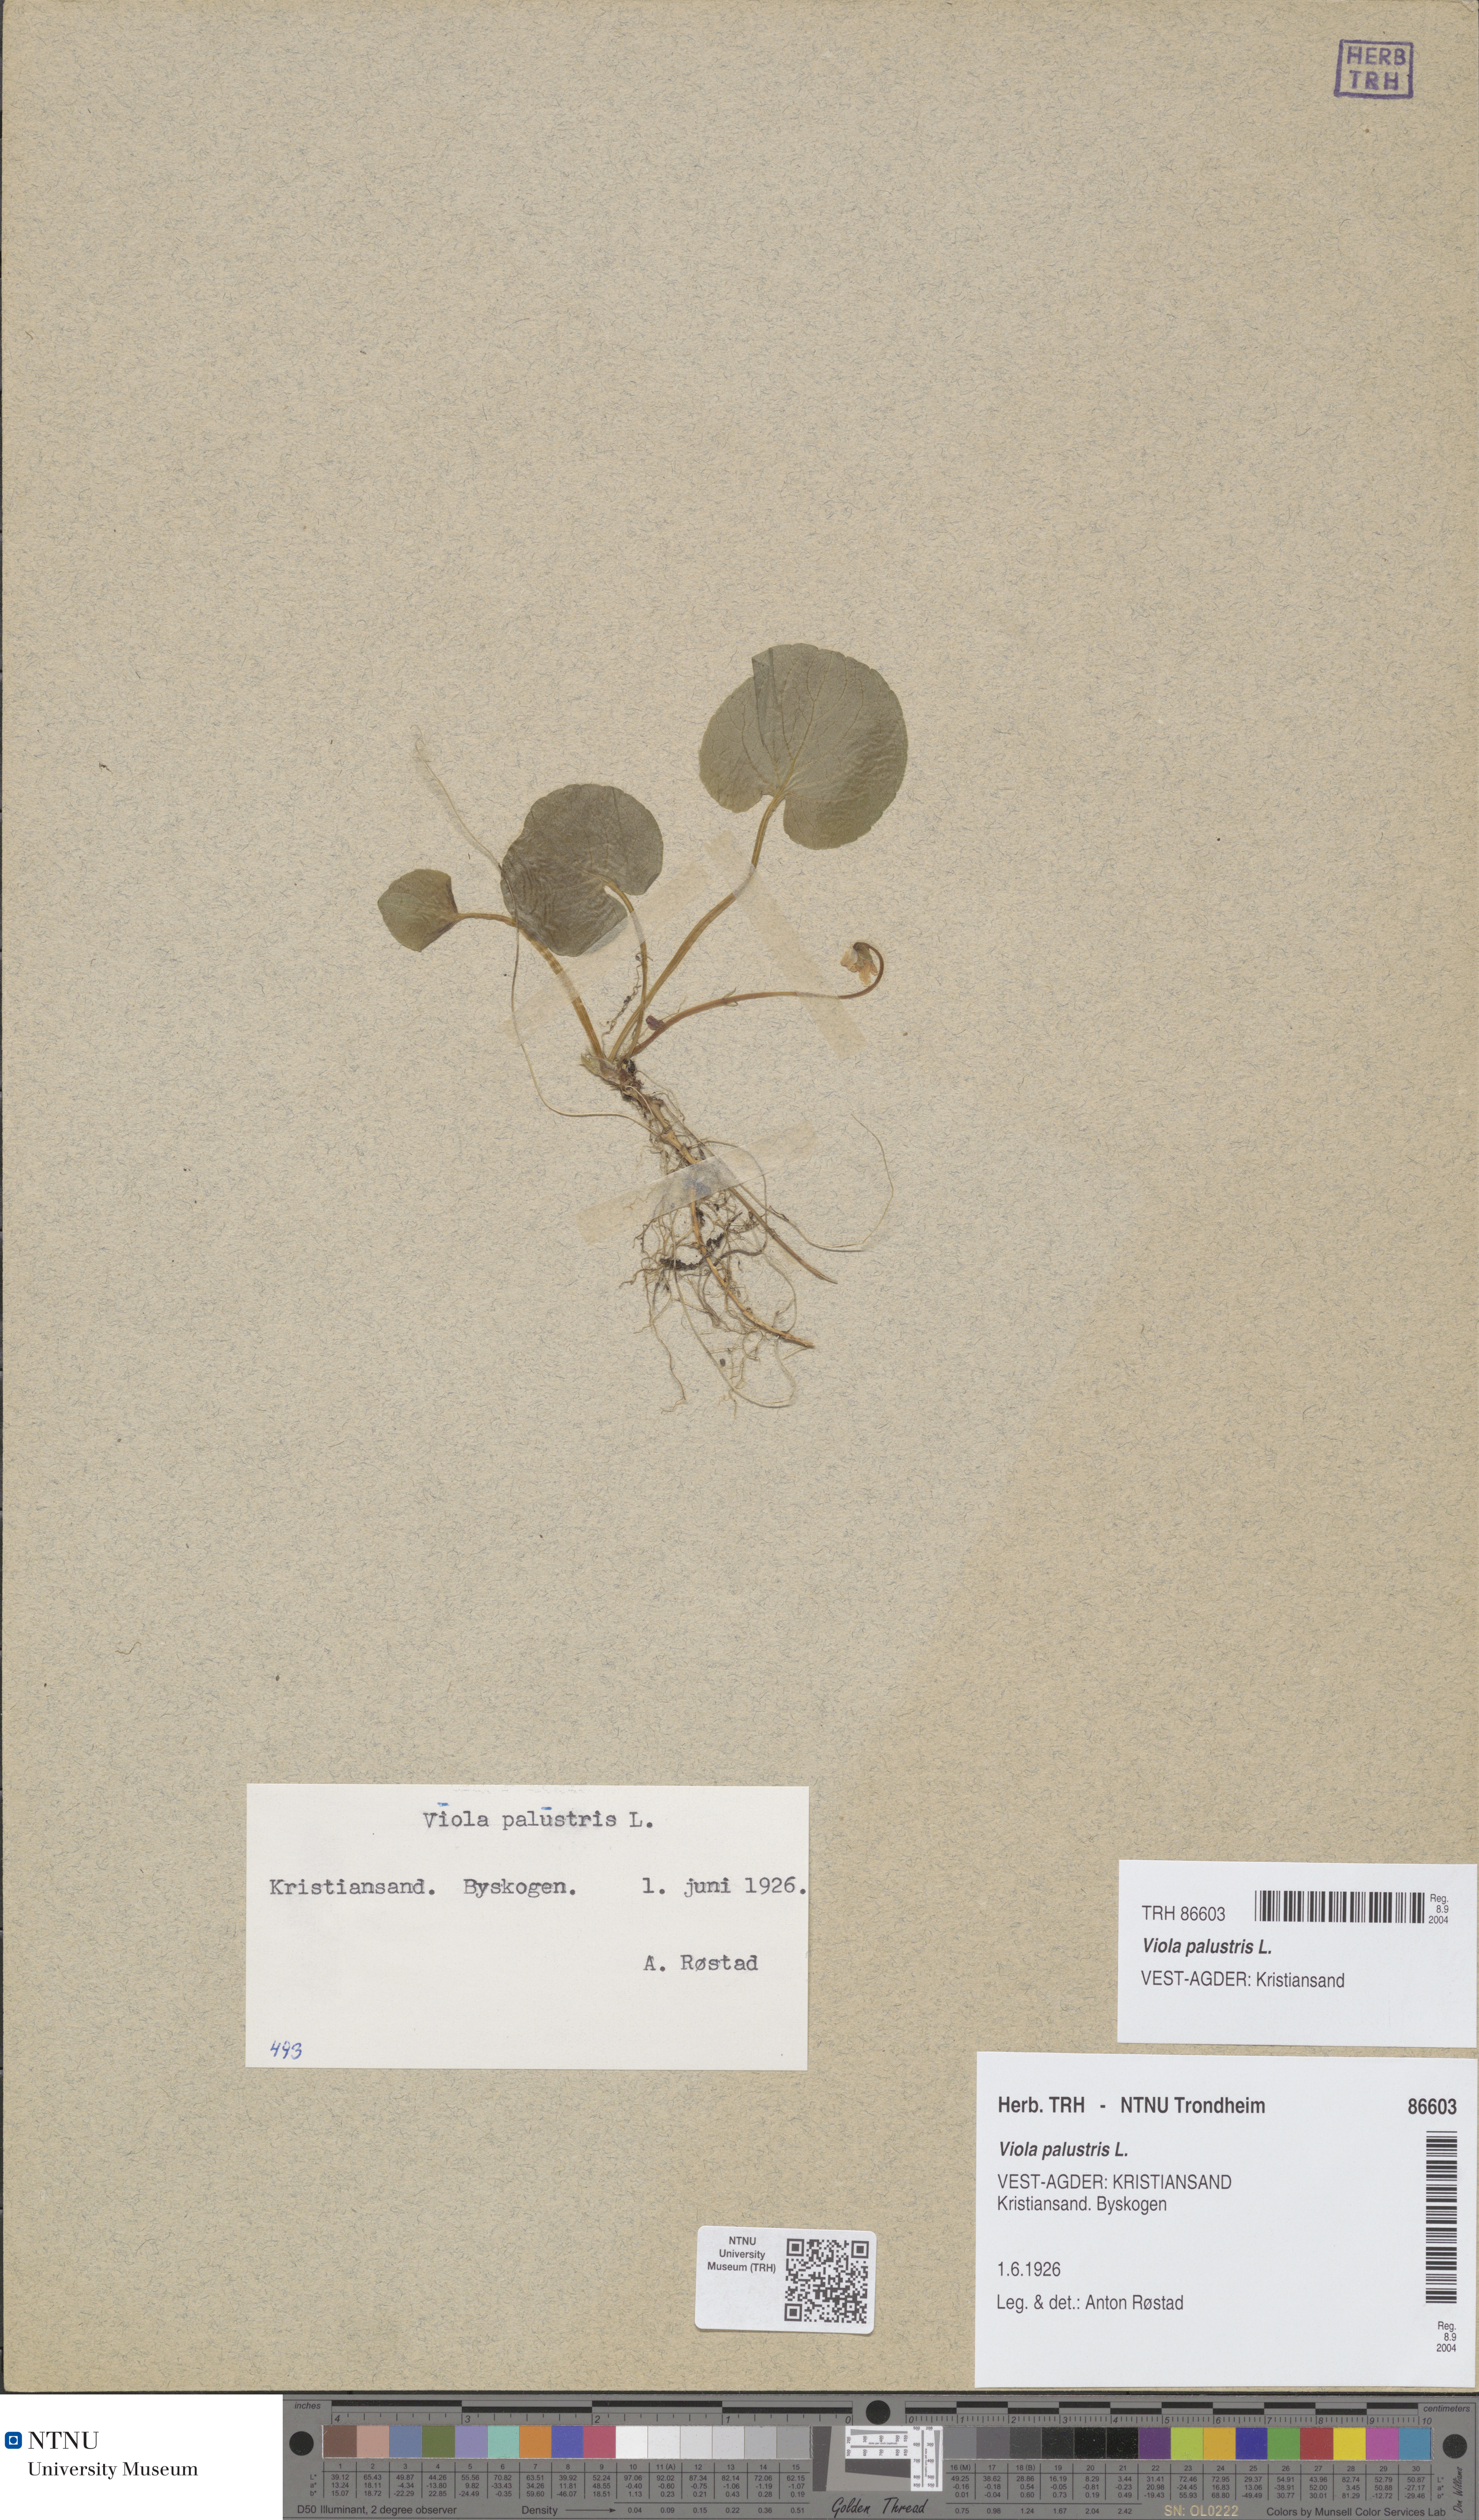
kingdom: Plantae
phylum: Tracheophyta
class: Magnoliopsida
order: Malpighiales
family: Violaceae
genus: Viola
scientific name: Viola palustris
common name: Marsh violet
